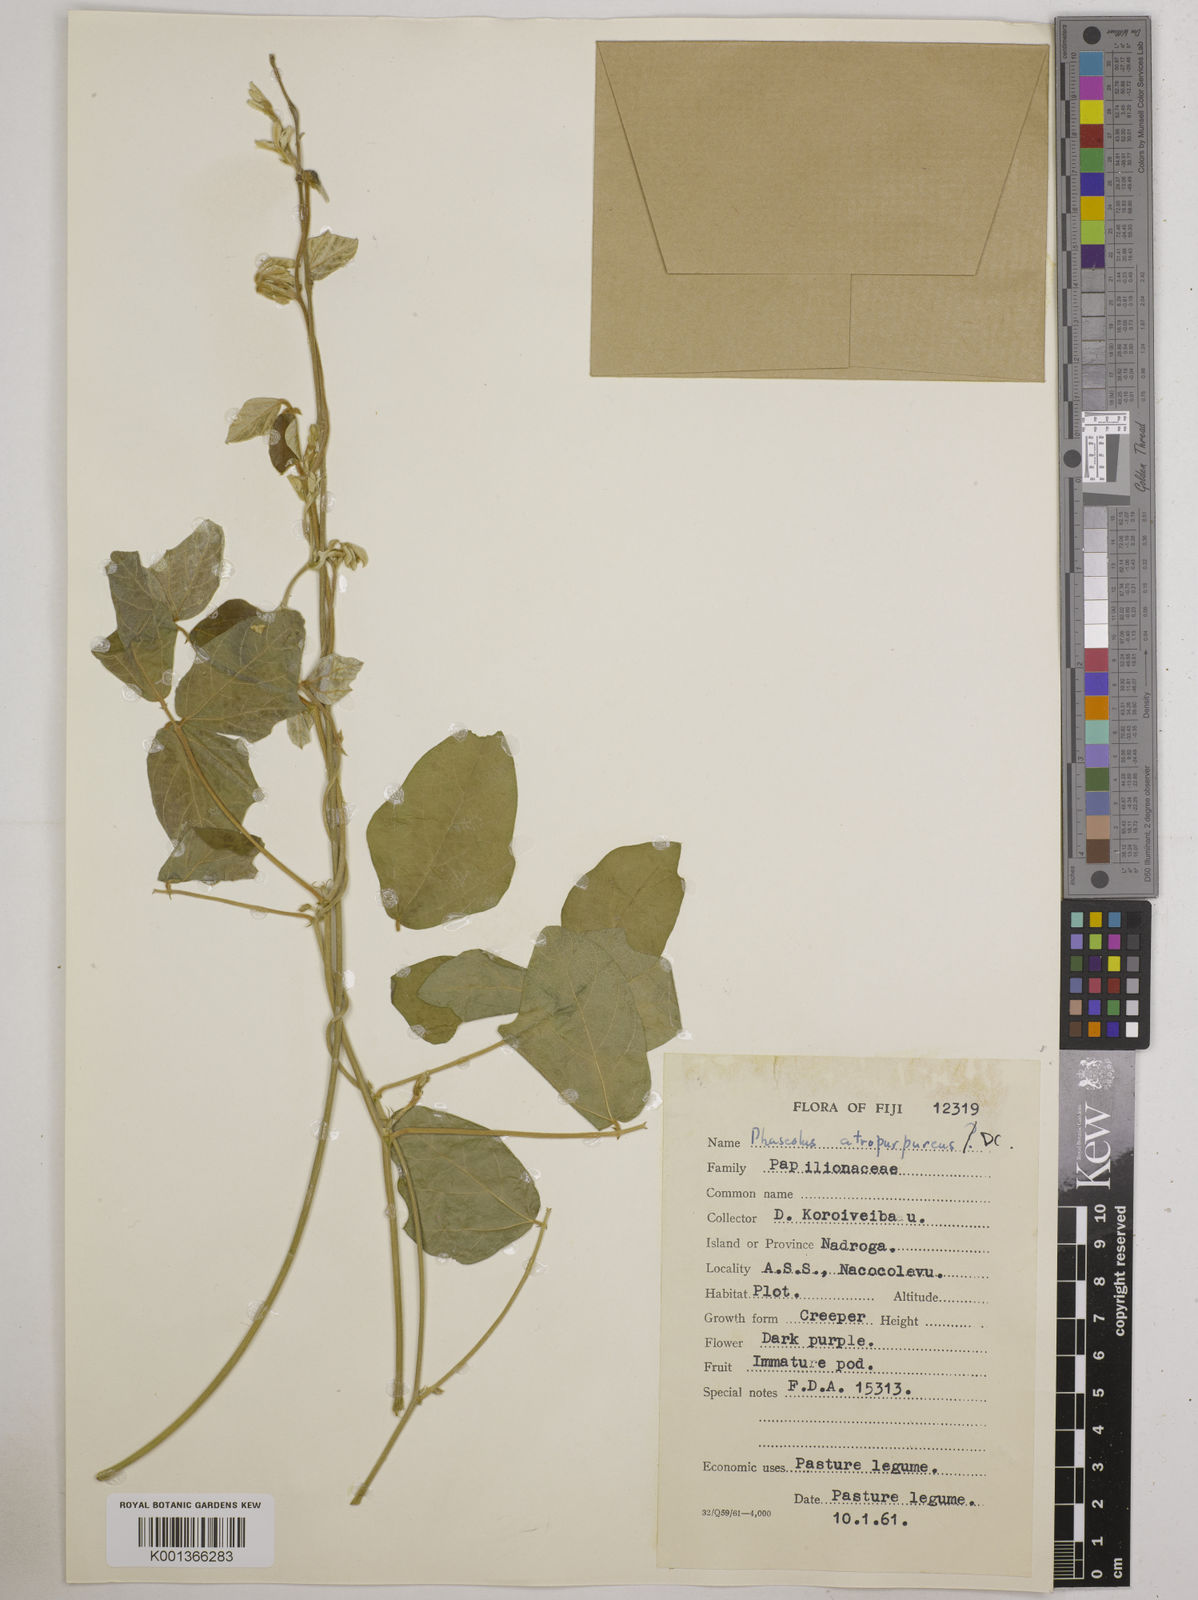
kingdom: Plantae
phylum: Tracheophyta
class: Magnoliopsida
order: Fabales
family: Fabaceae
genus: Macroptilium
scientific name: Macroptilium atropurpureum
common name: Purple bushbean
